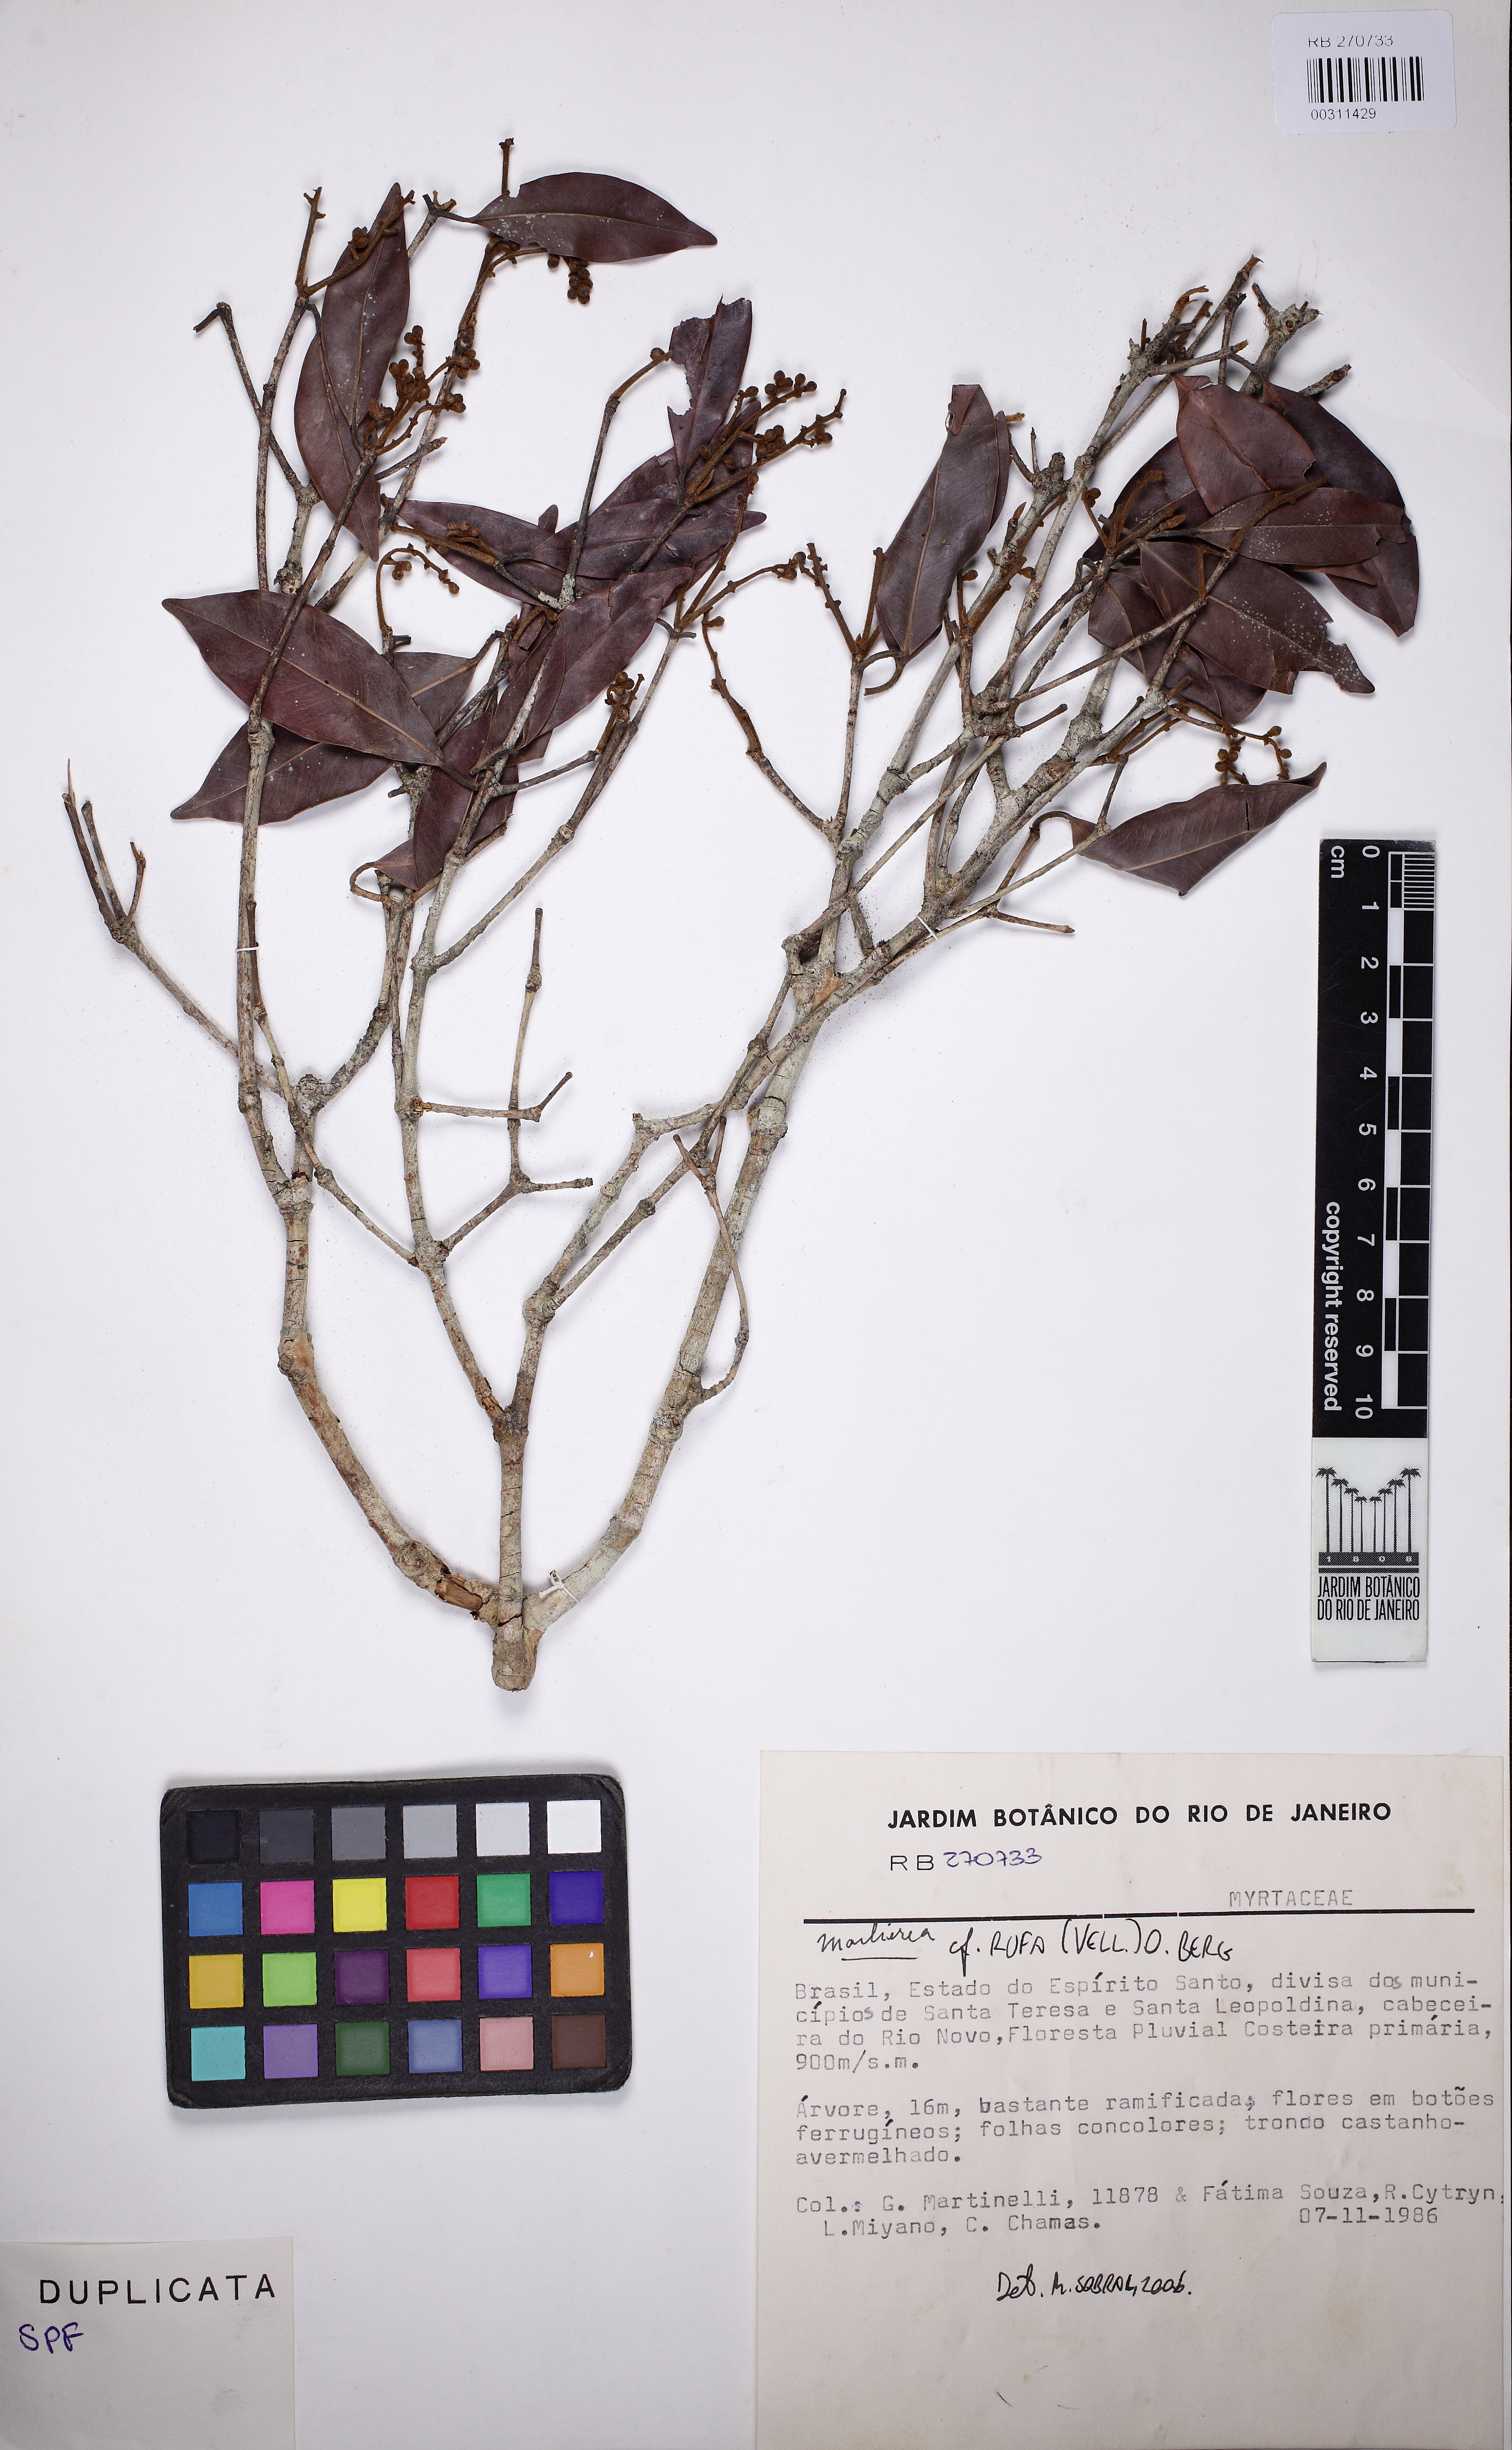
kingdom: Plantae
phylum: Tracheophyta
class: Magnoliopsida
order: Myrtales
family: Myrtaceae
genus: Myrcia
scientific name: Myrcia rufopilosa
